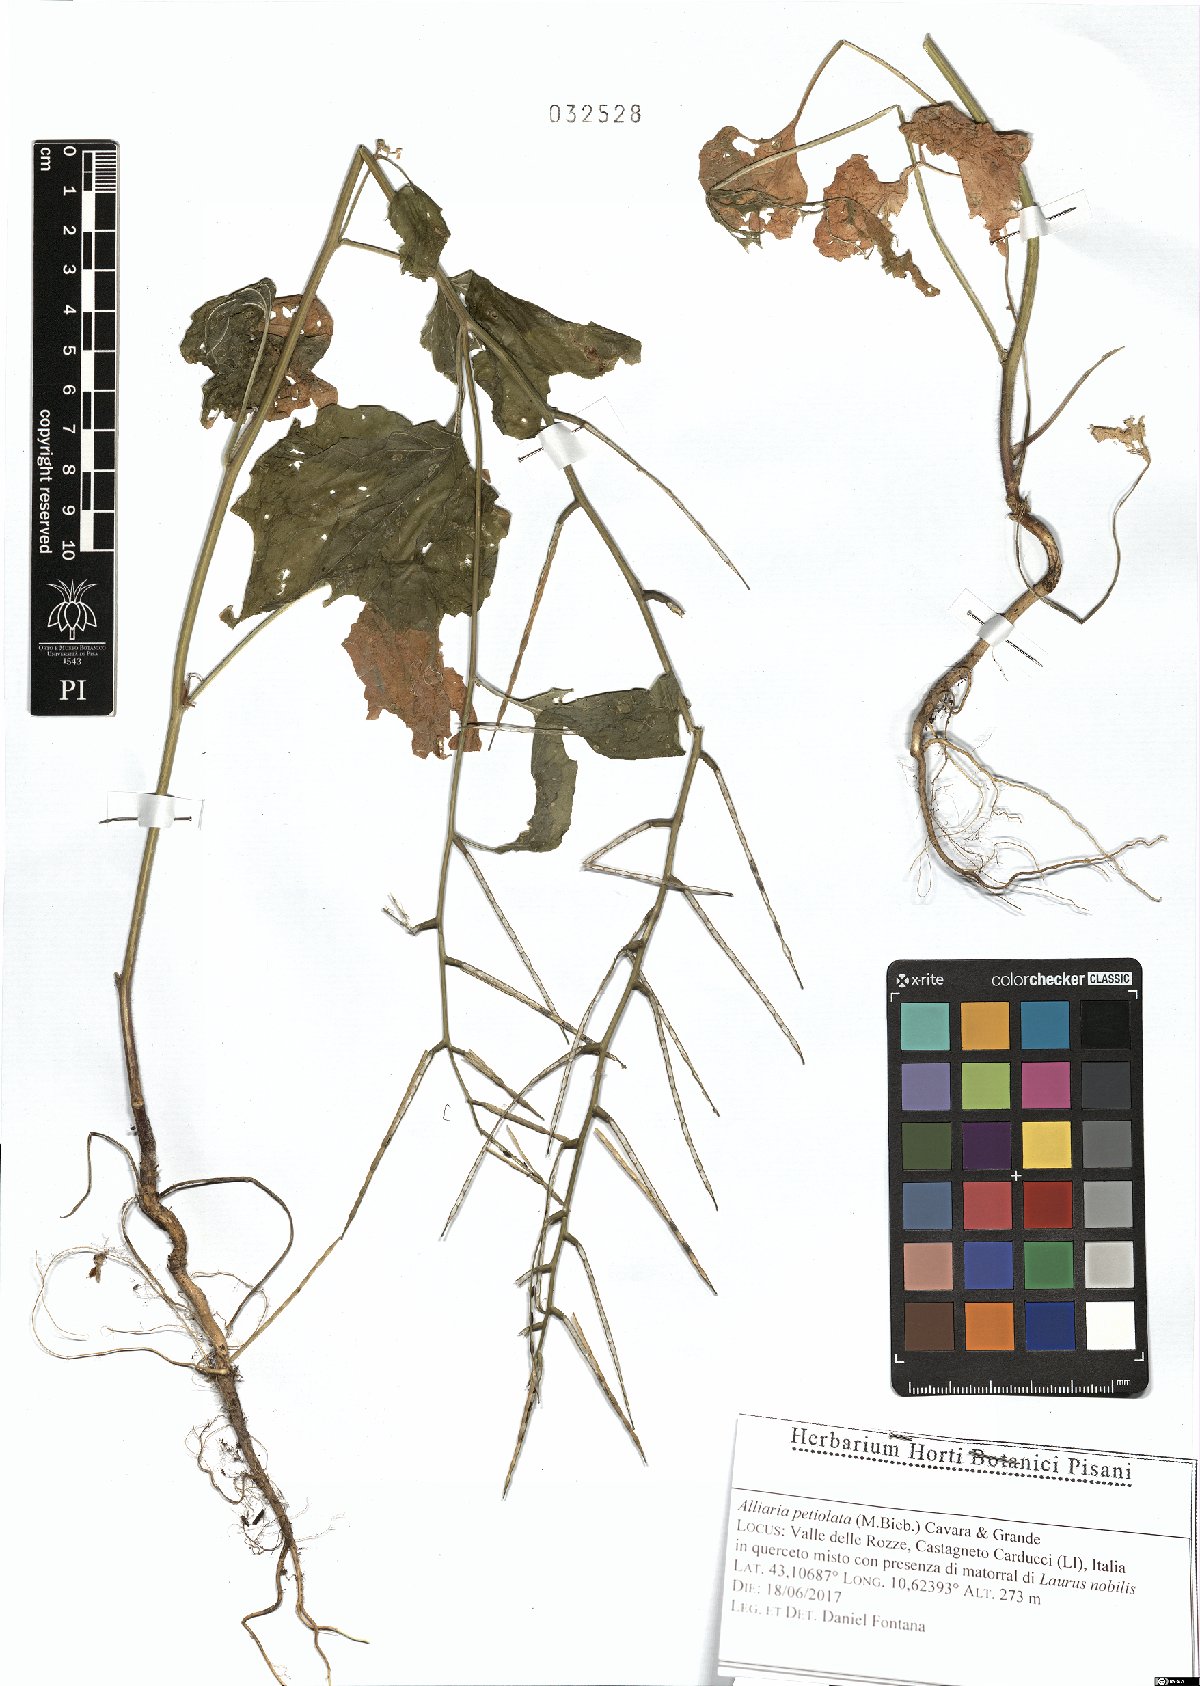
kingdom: Plantae
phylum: Tracheophyta
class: Magnoliopsida
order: Brassicales
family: Brassicaceae
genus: Alliaria
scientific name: Alliaria petiolata
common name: Garlic mustard
